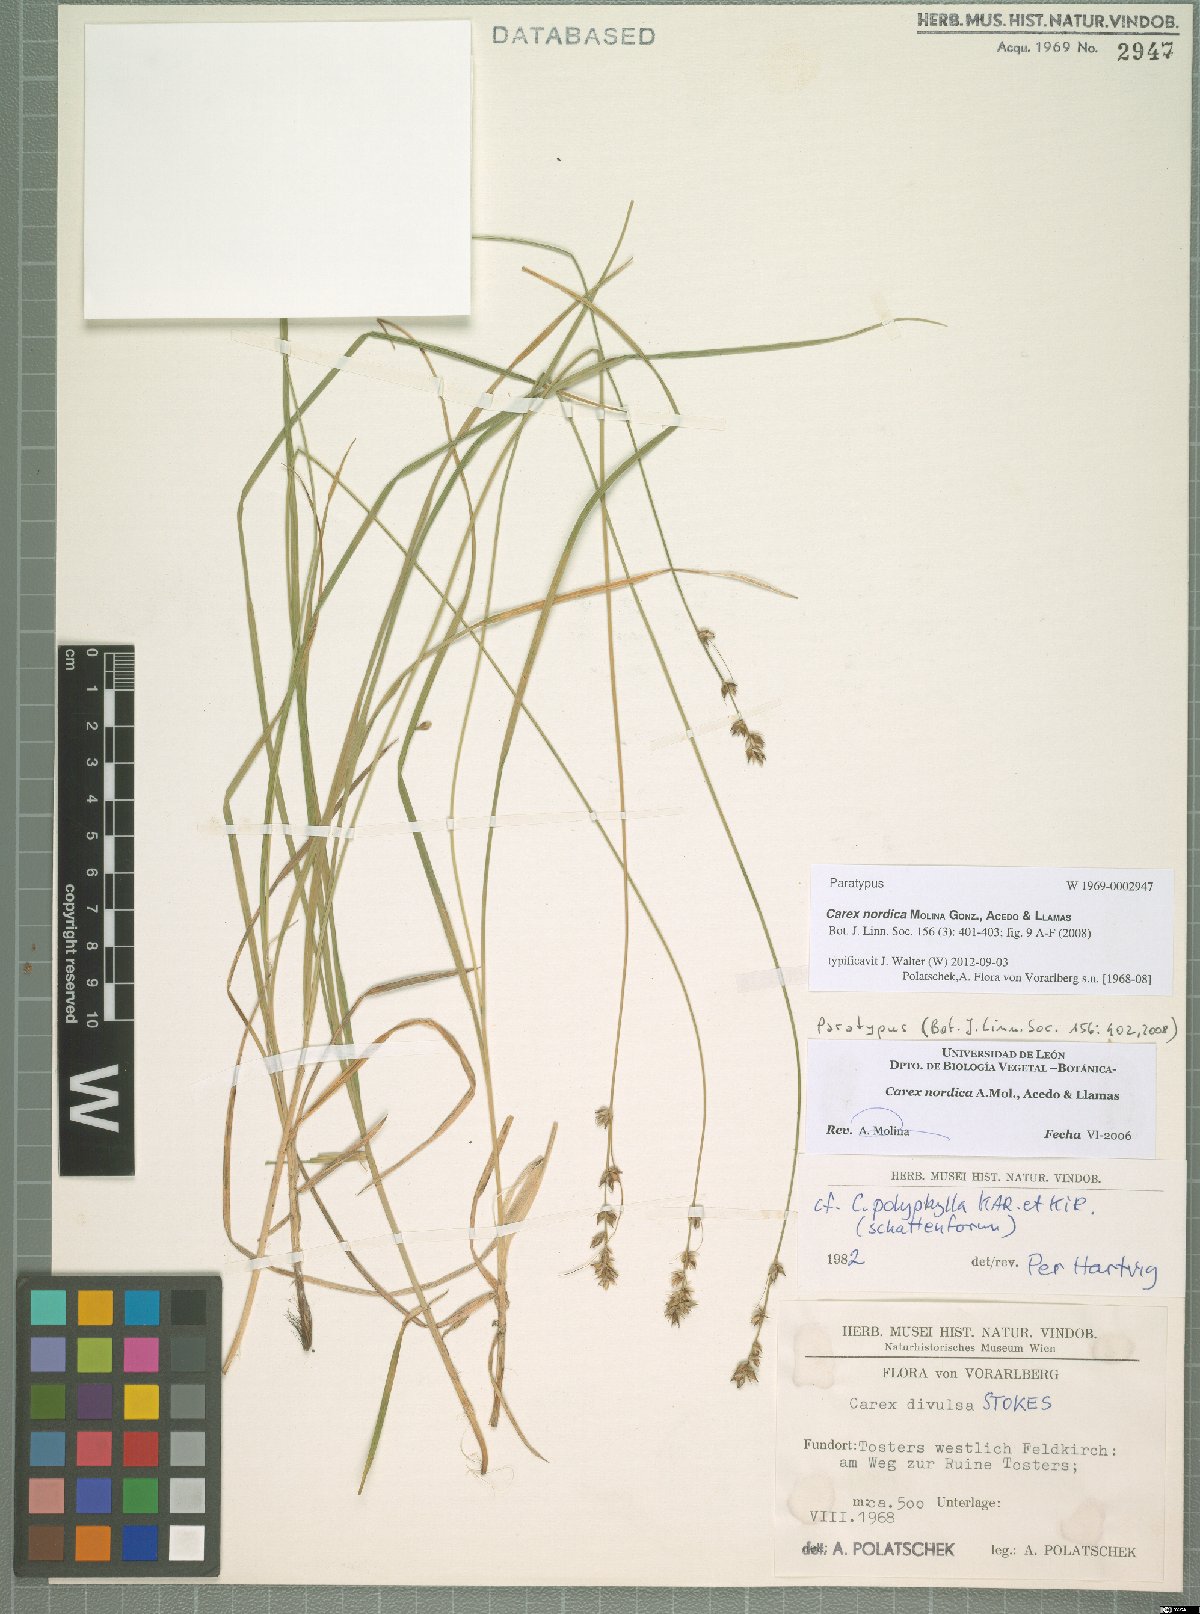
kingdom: Plantae
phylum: Tracheophyta
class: Liliopsida
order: Poales
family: Cyperaceae
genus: Carex
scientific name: Carex divulsa
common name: Grassland sedge
